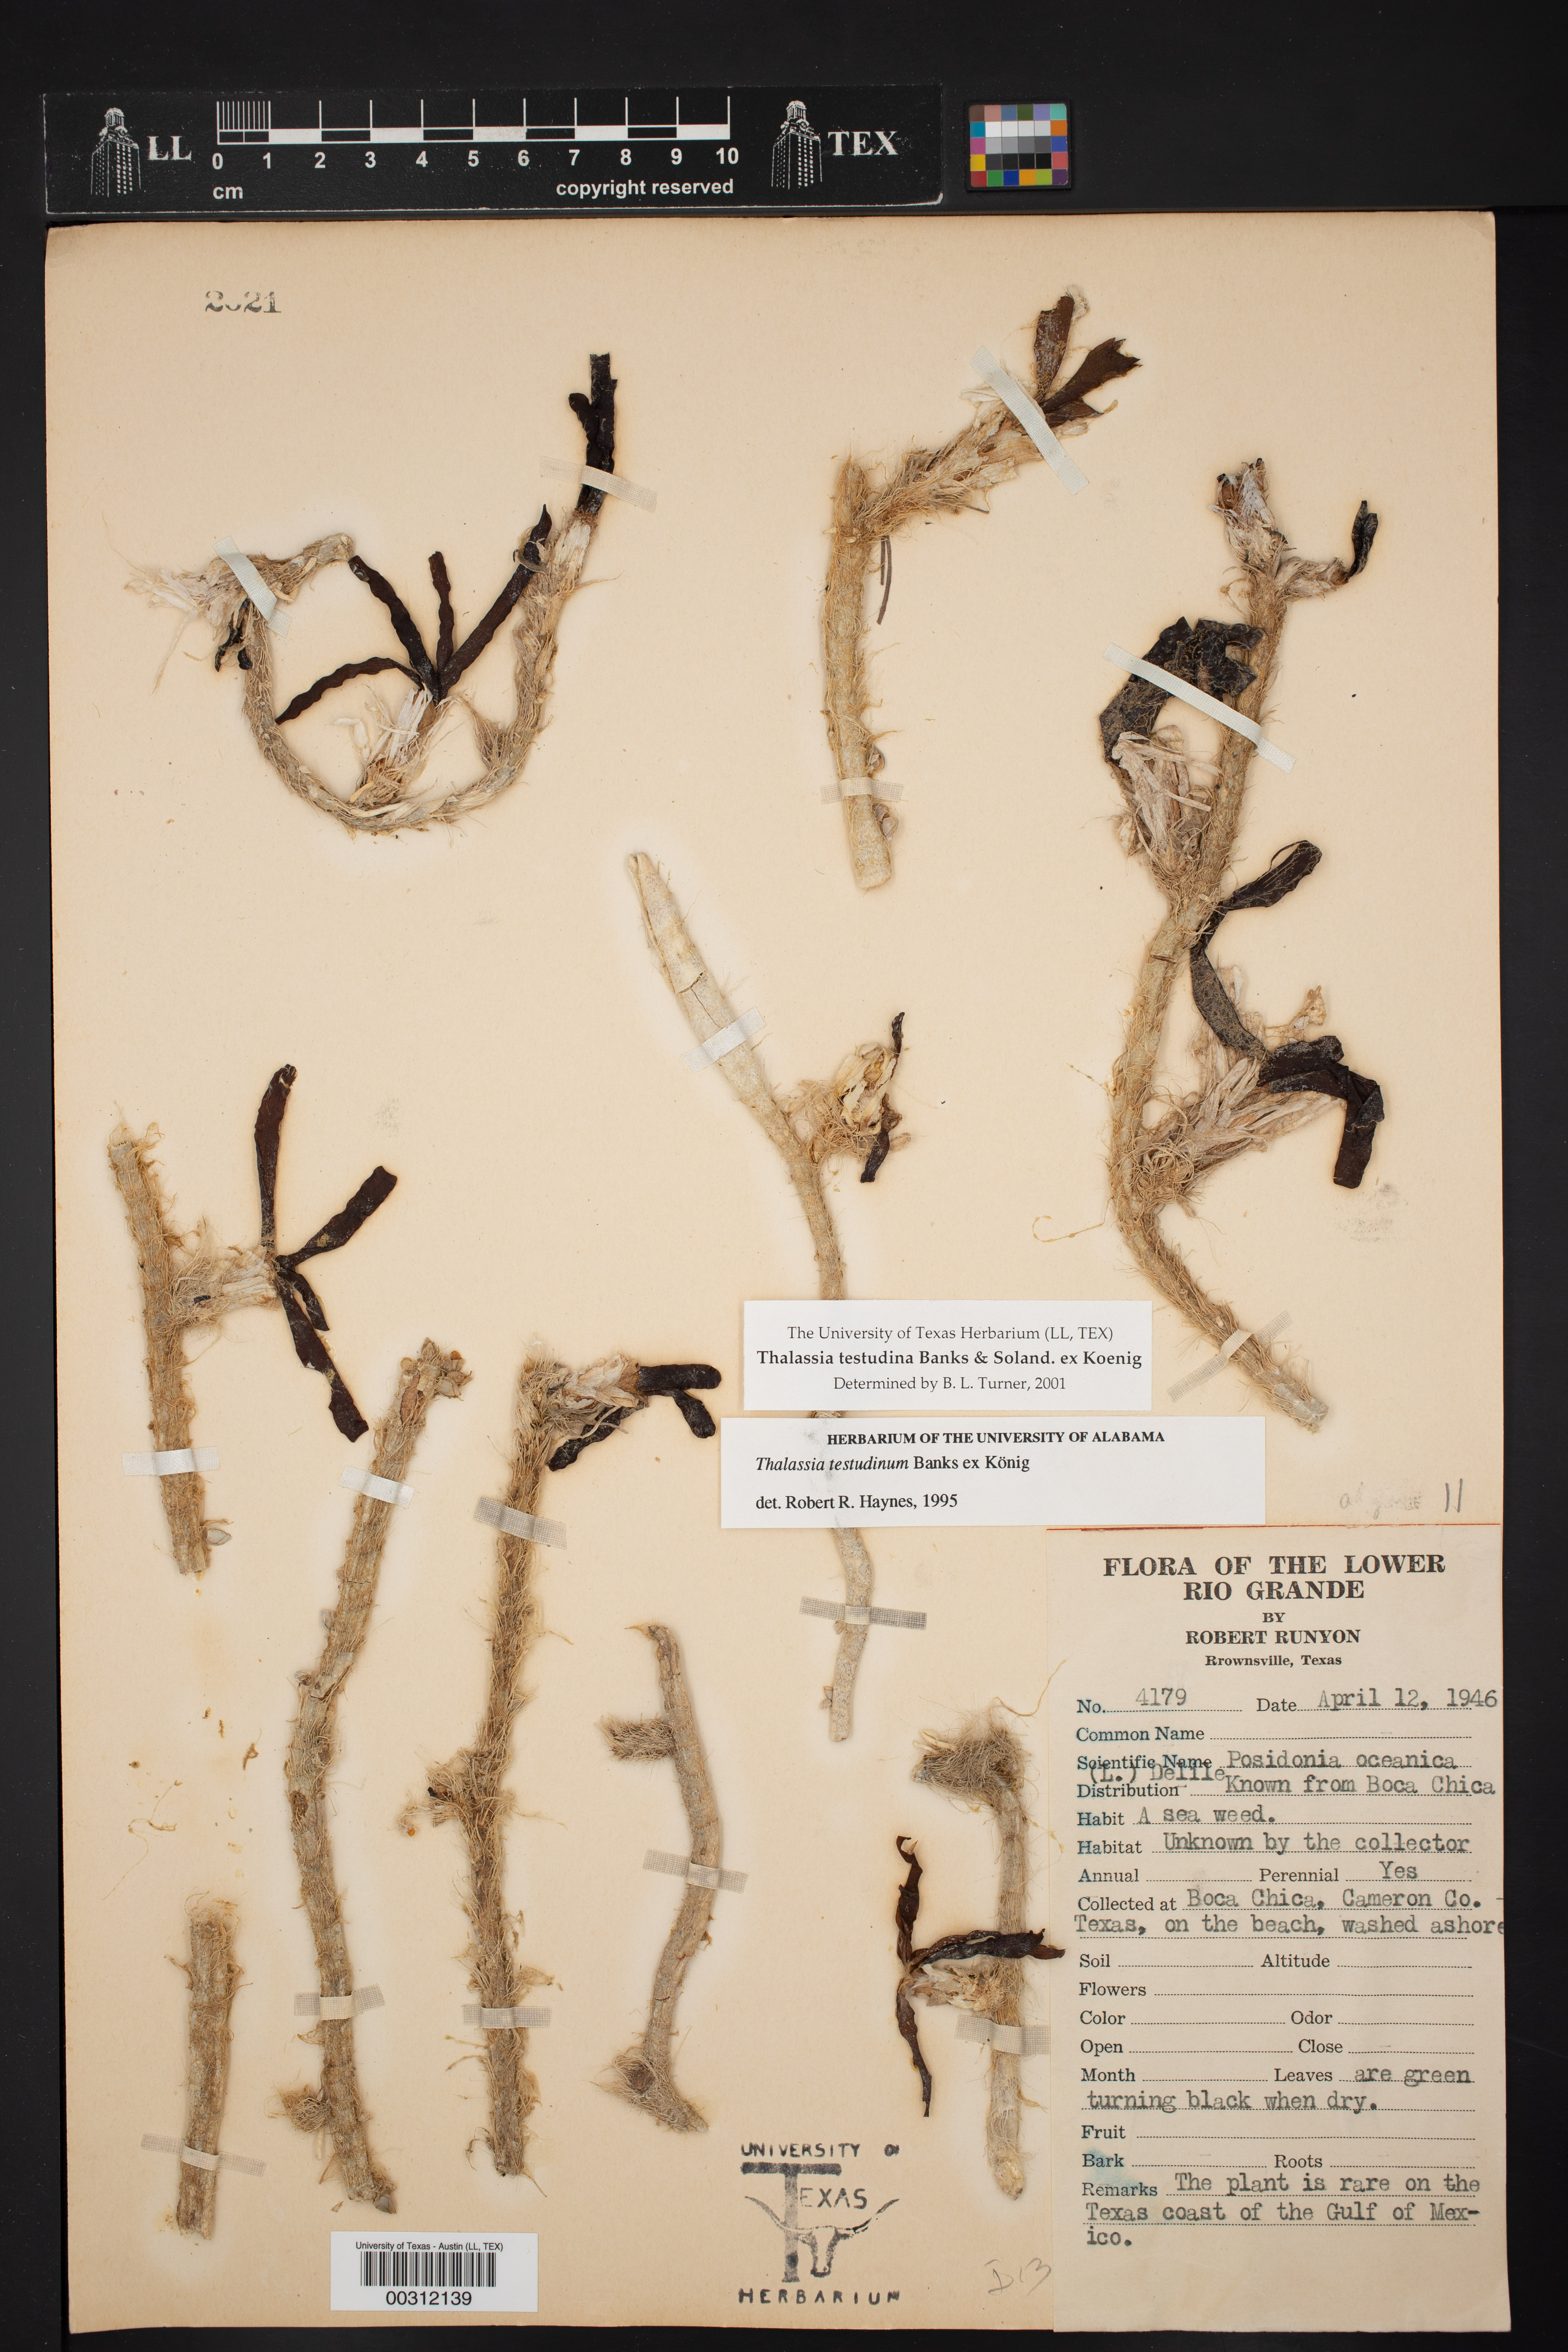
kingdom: Plantae
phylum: Tracheophyta
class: Liliopsida
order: Alismatales
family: Hydrocharitaceae
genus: Thalassia
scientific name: Thalassia testudinum
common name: Species code: tt
